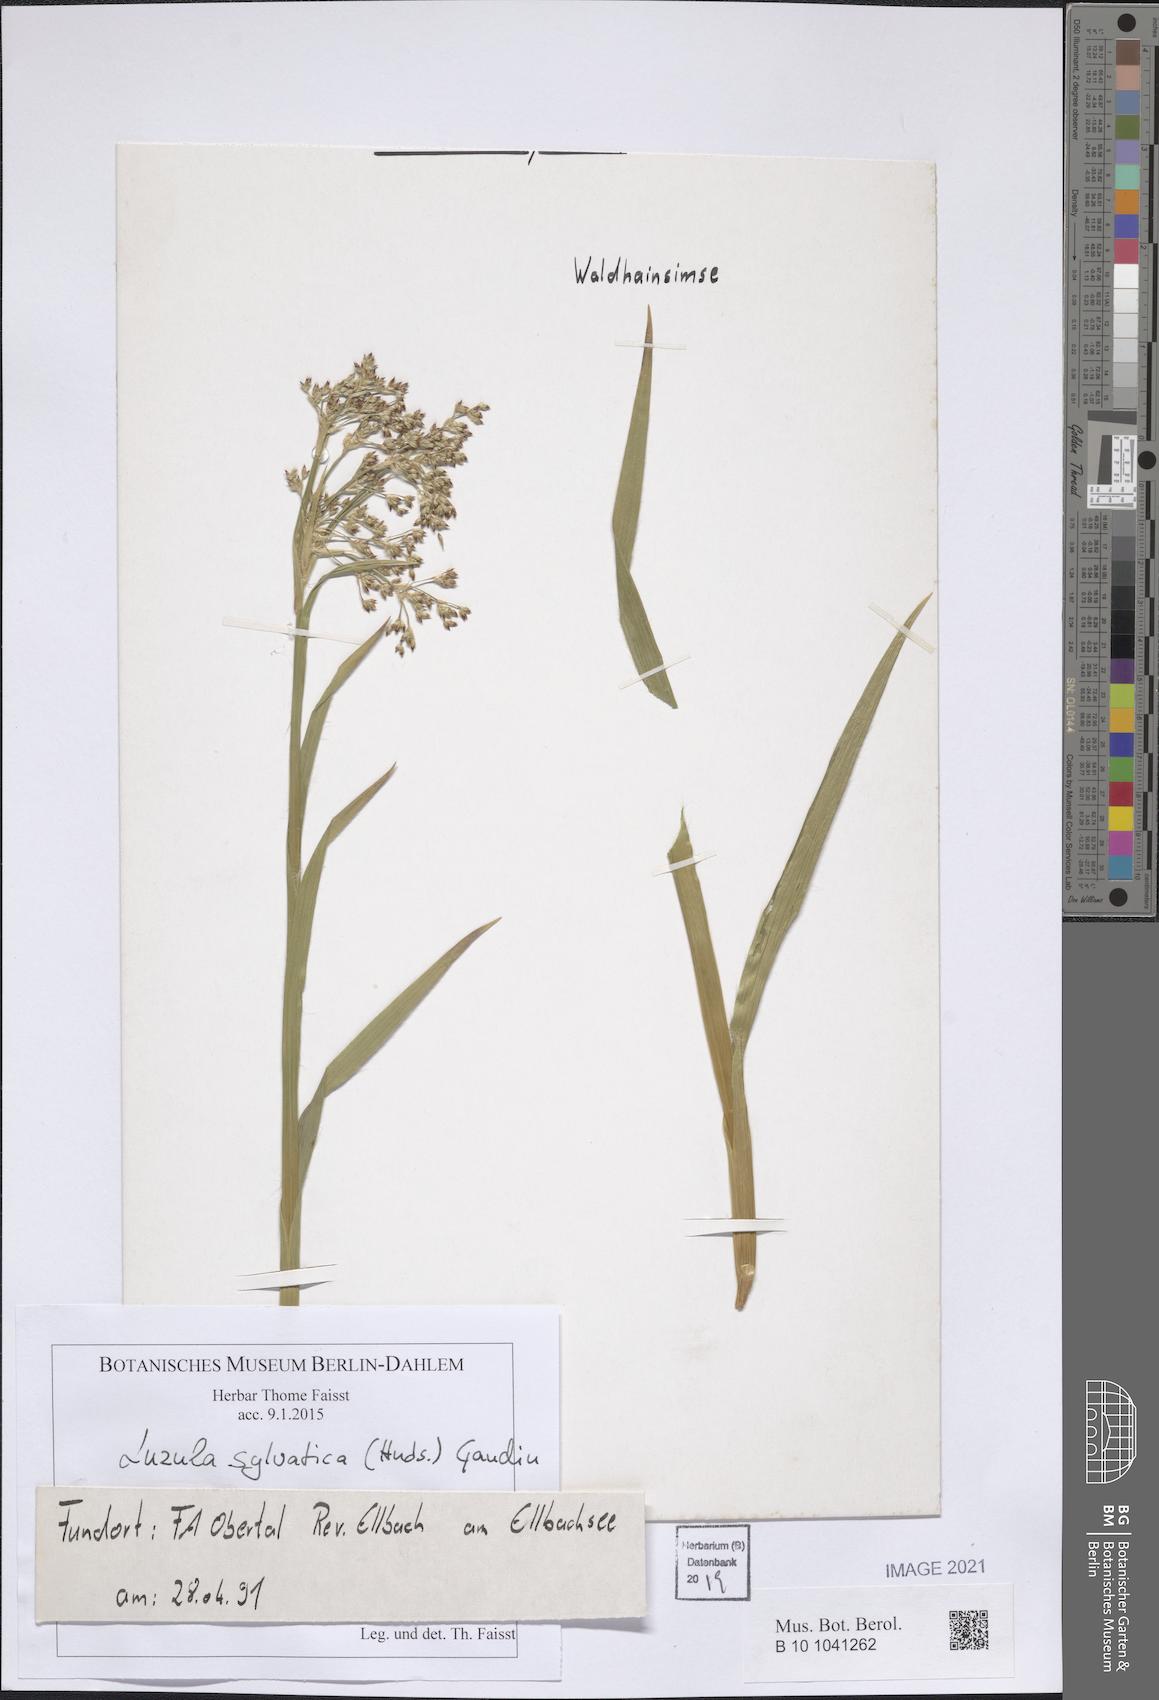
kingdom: Plantae
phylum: Tracheophyta
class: Liliopsida
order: Poales
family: Juncaceae
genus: Luzula
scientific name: Luzula sylvatica
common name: Great wood-rush
